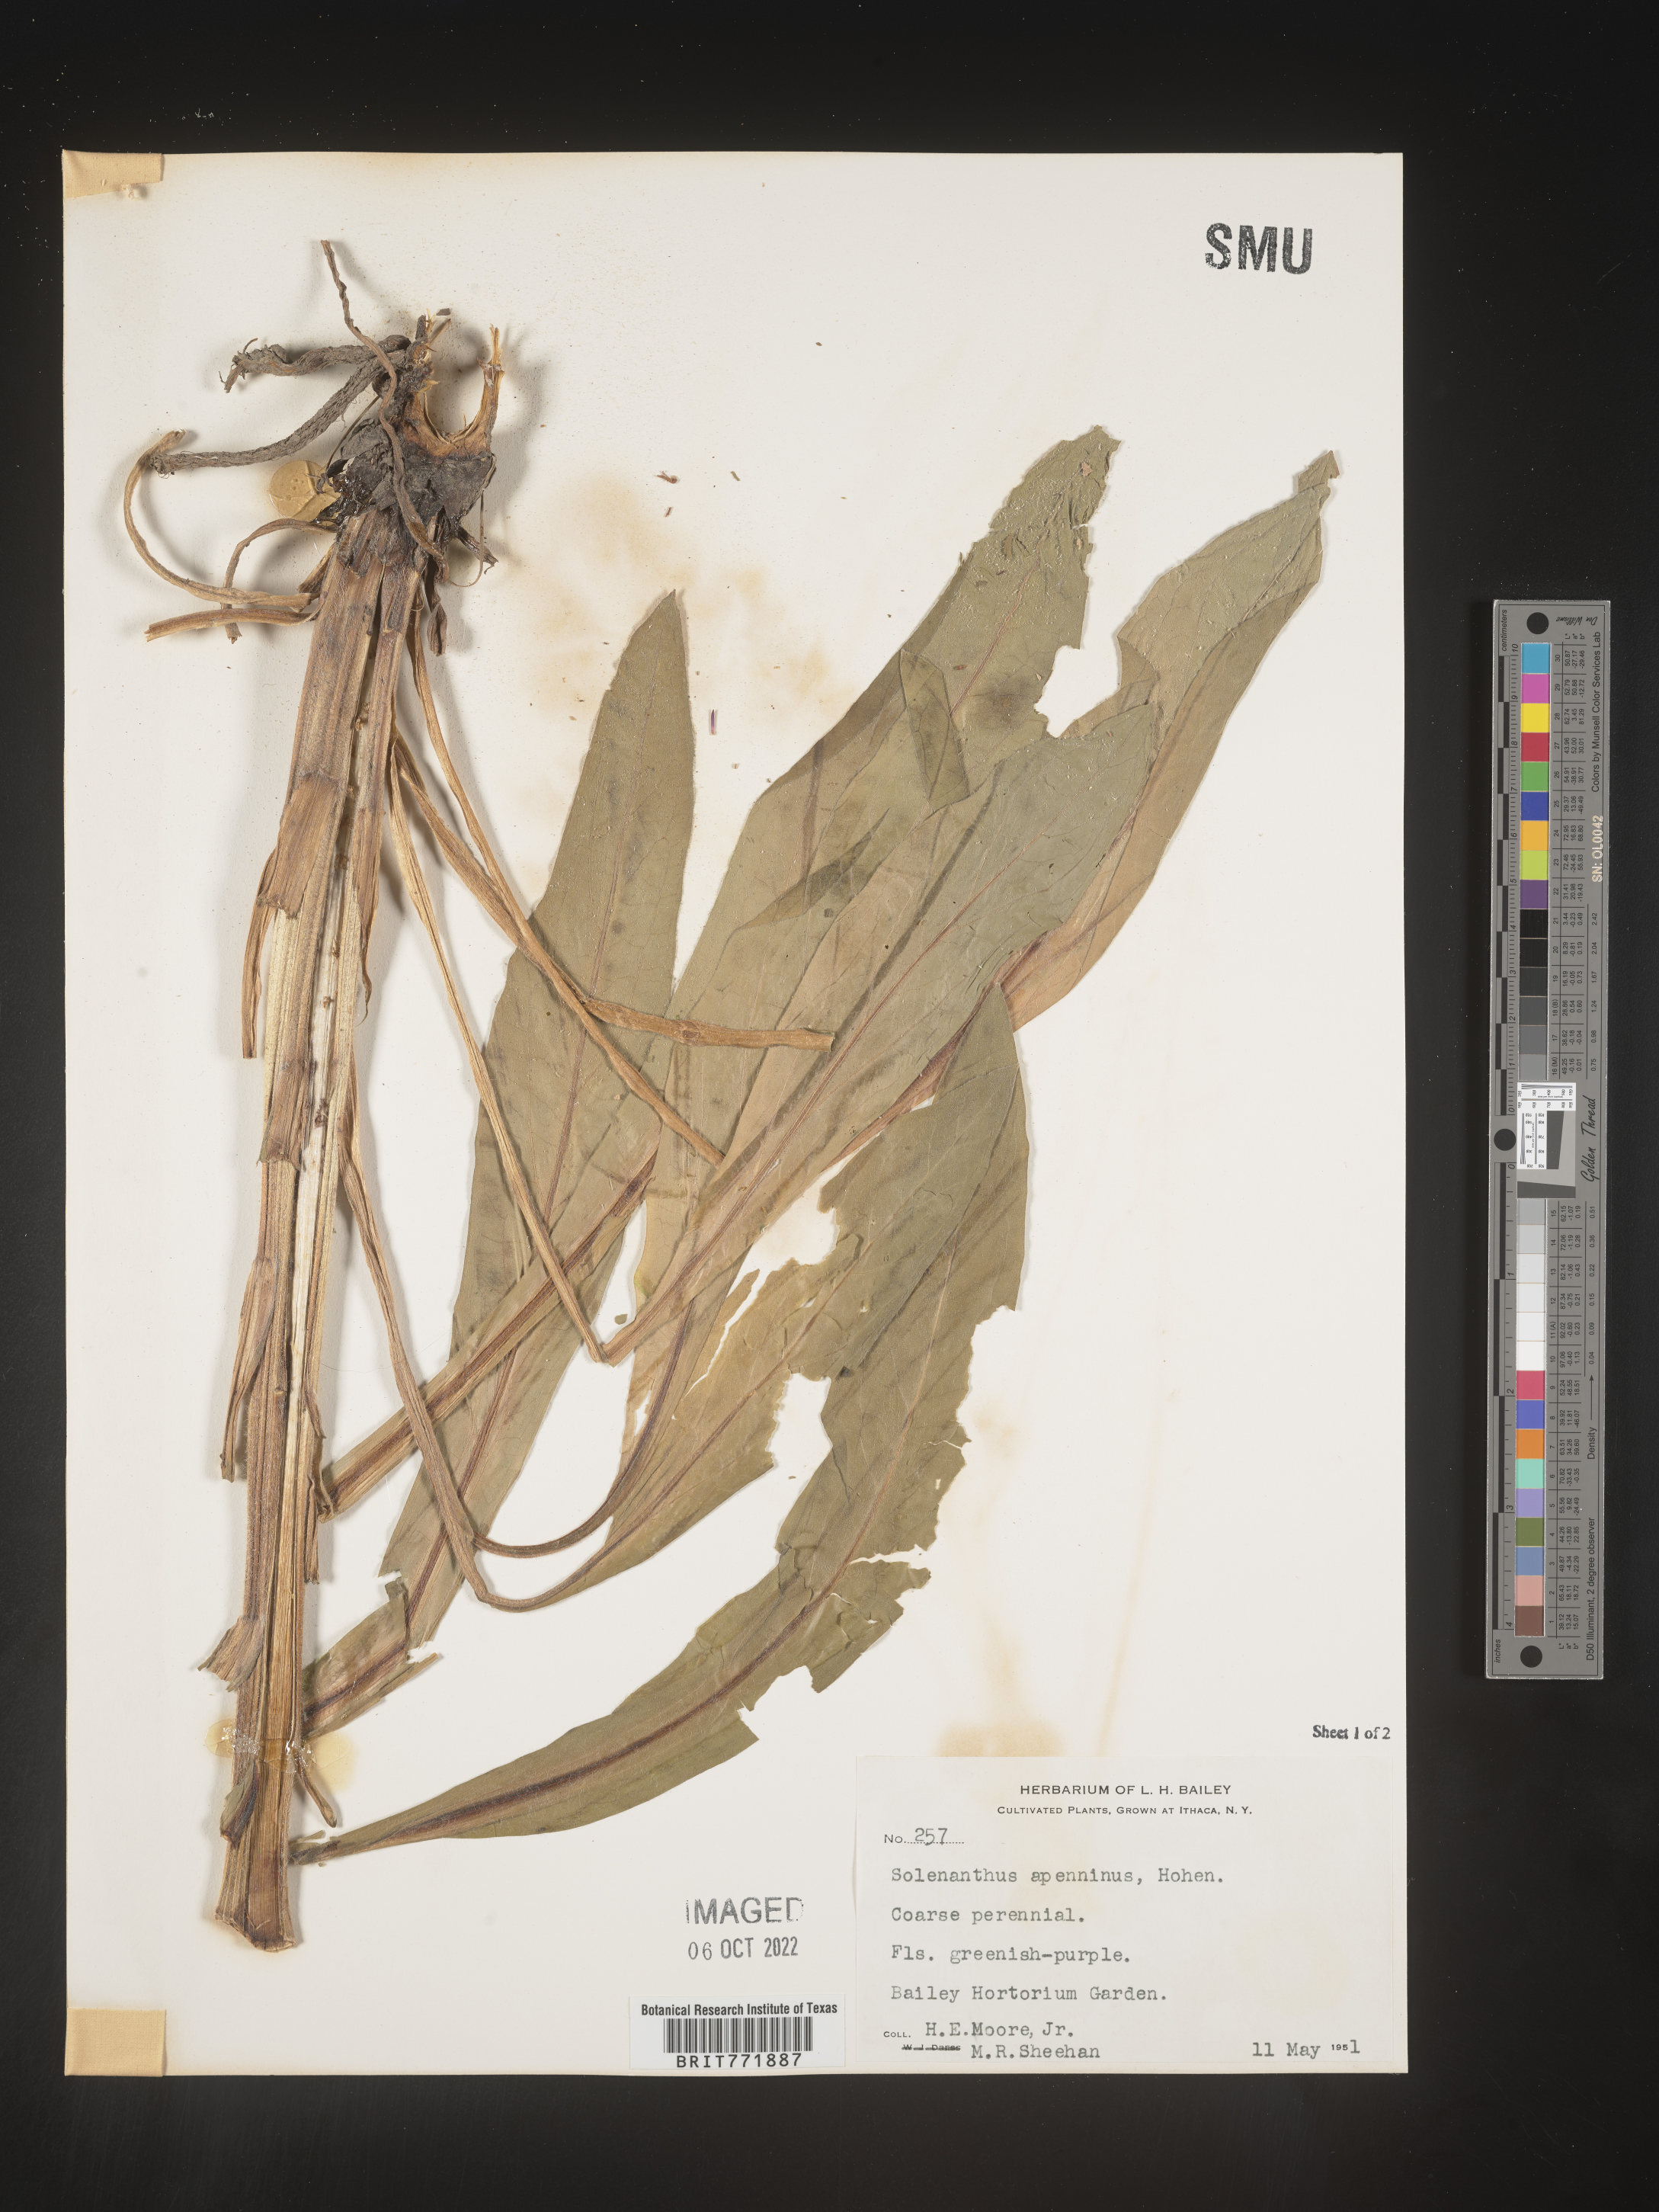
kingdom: Plantae
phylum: Tracheophyta
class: Magnoliopsida
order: Boraginales
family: Boraginaceae
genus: Solenanthus
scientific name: Solenanthus
